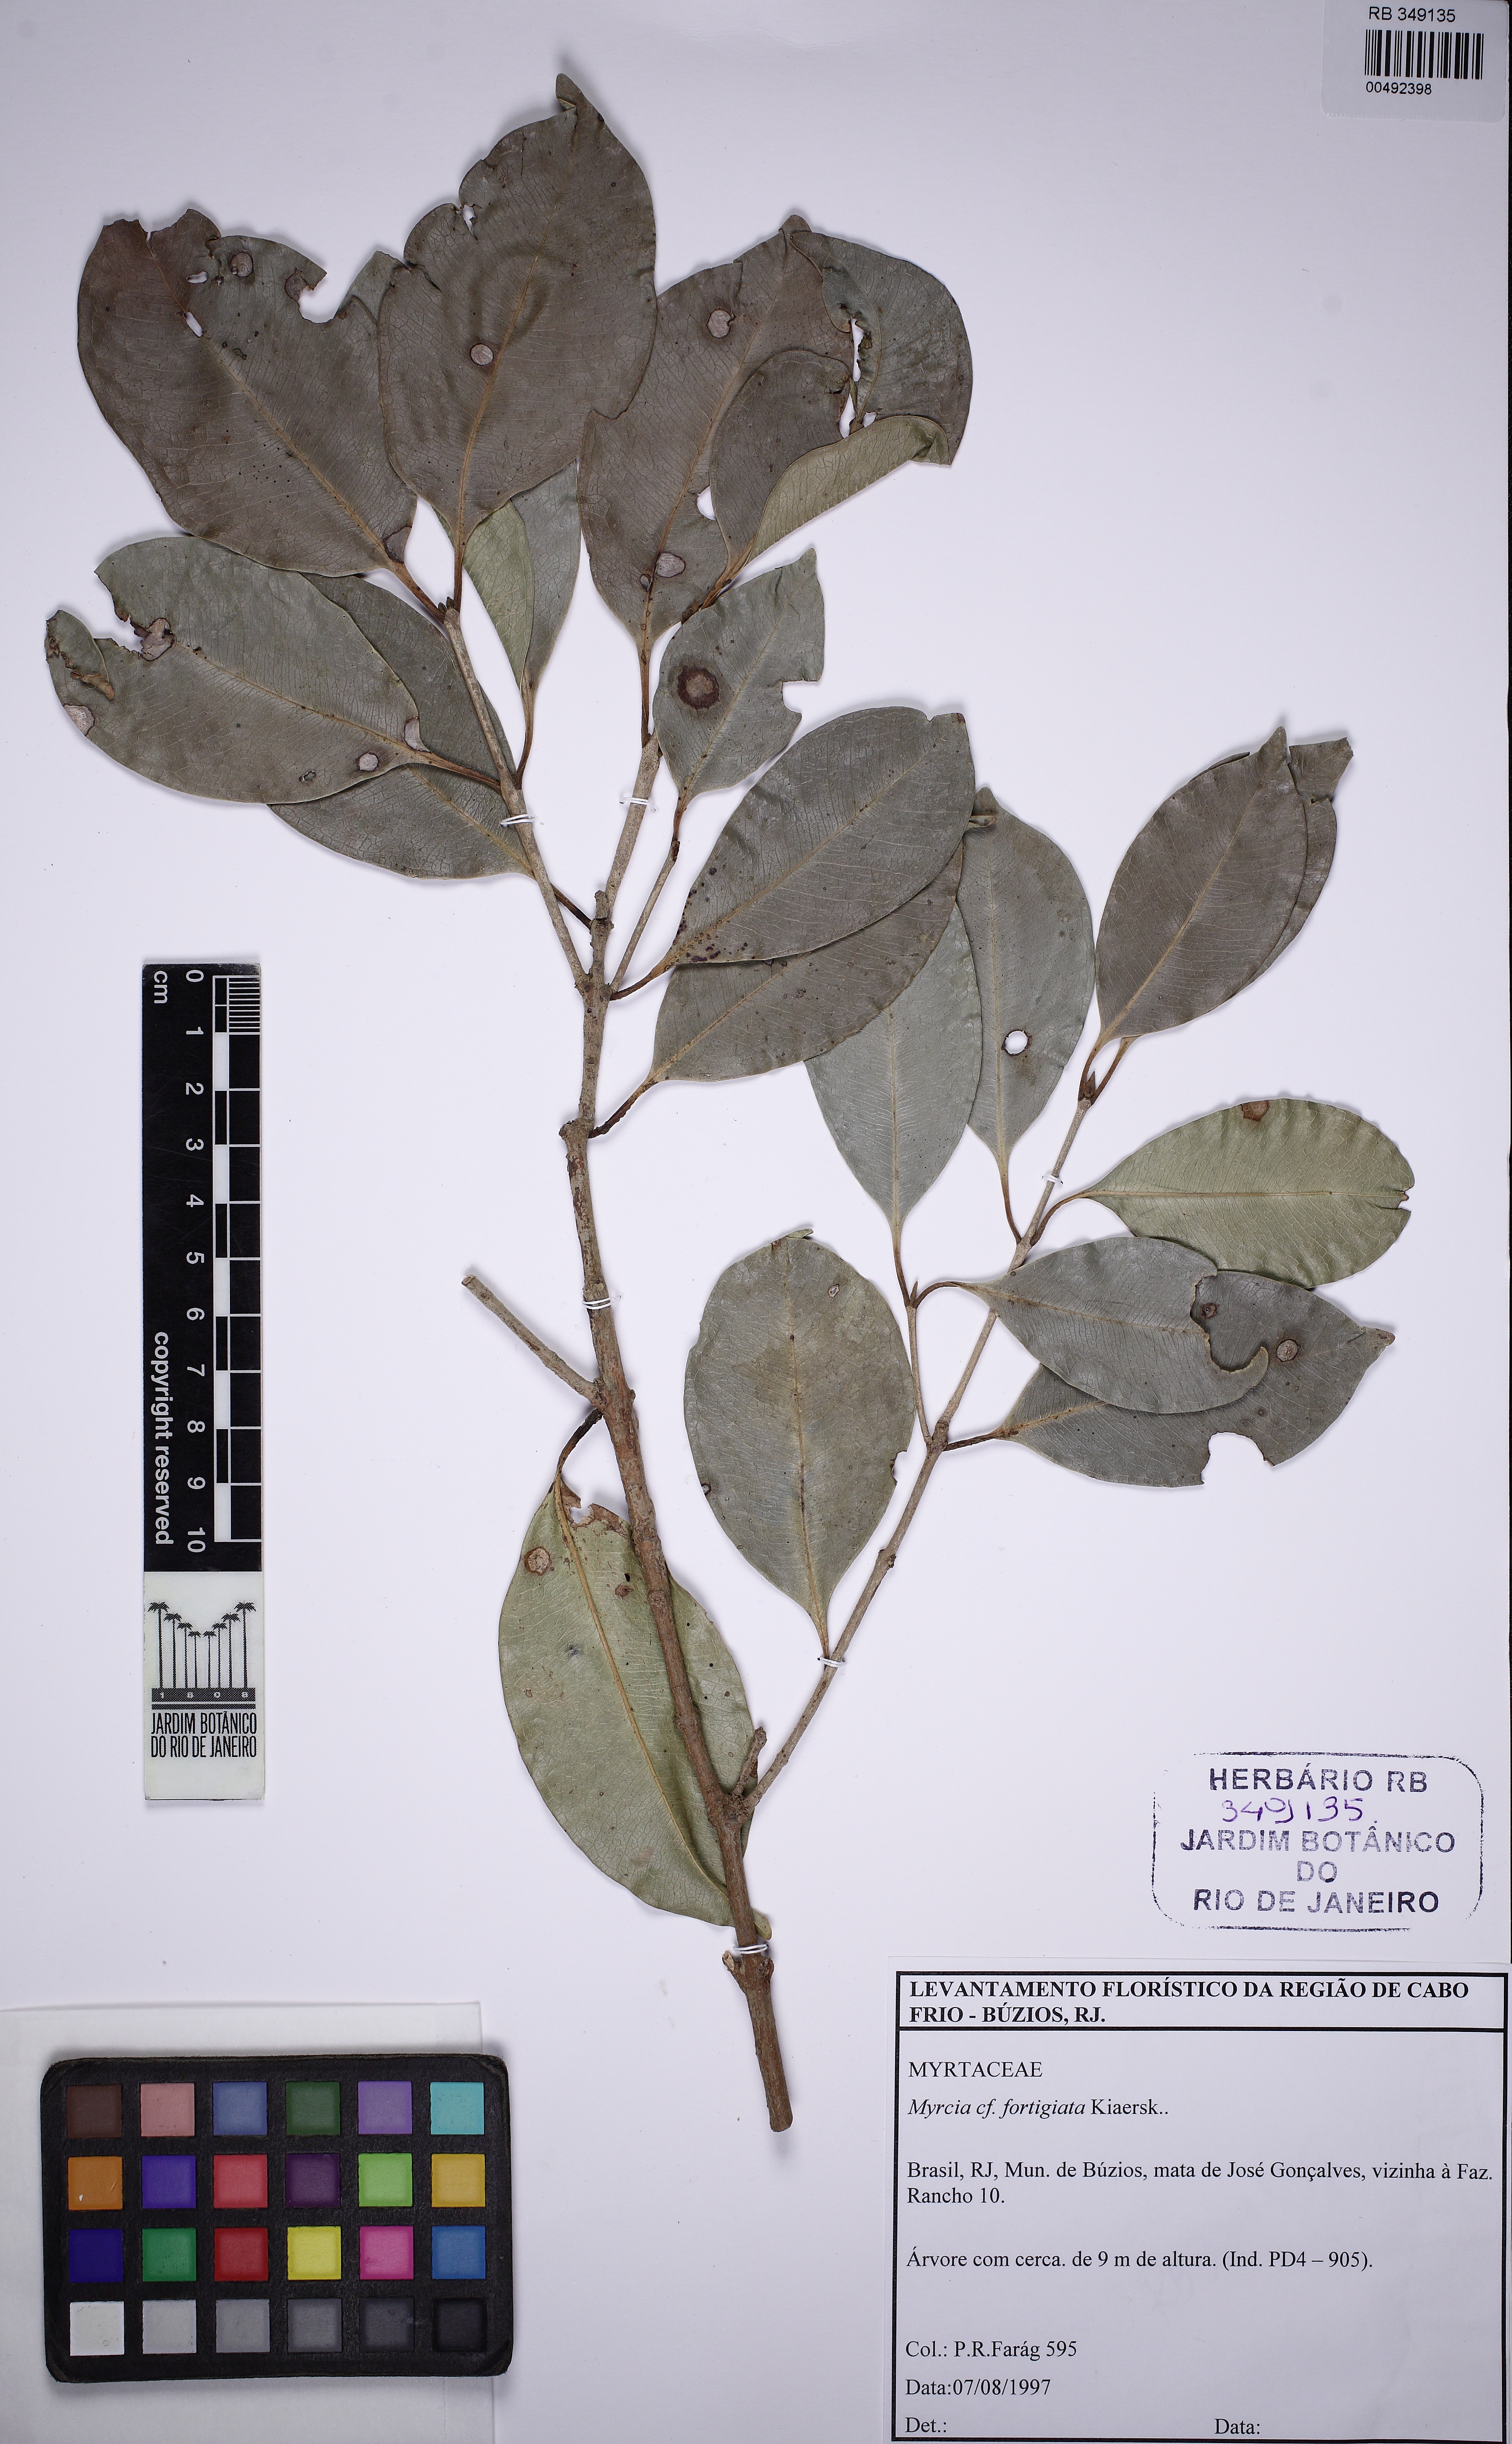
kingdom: Plantae
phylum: Tracheophyta
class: Magnoliopsida
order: Myrtales
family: Myrtaceae
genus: Myrcia
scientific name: Myrcia guianensis
